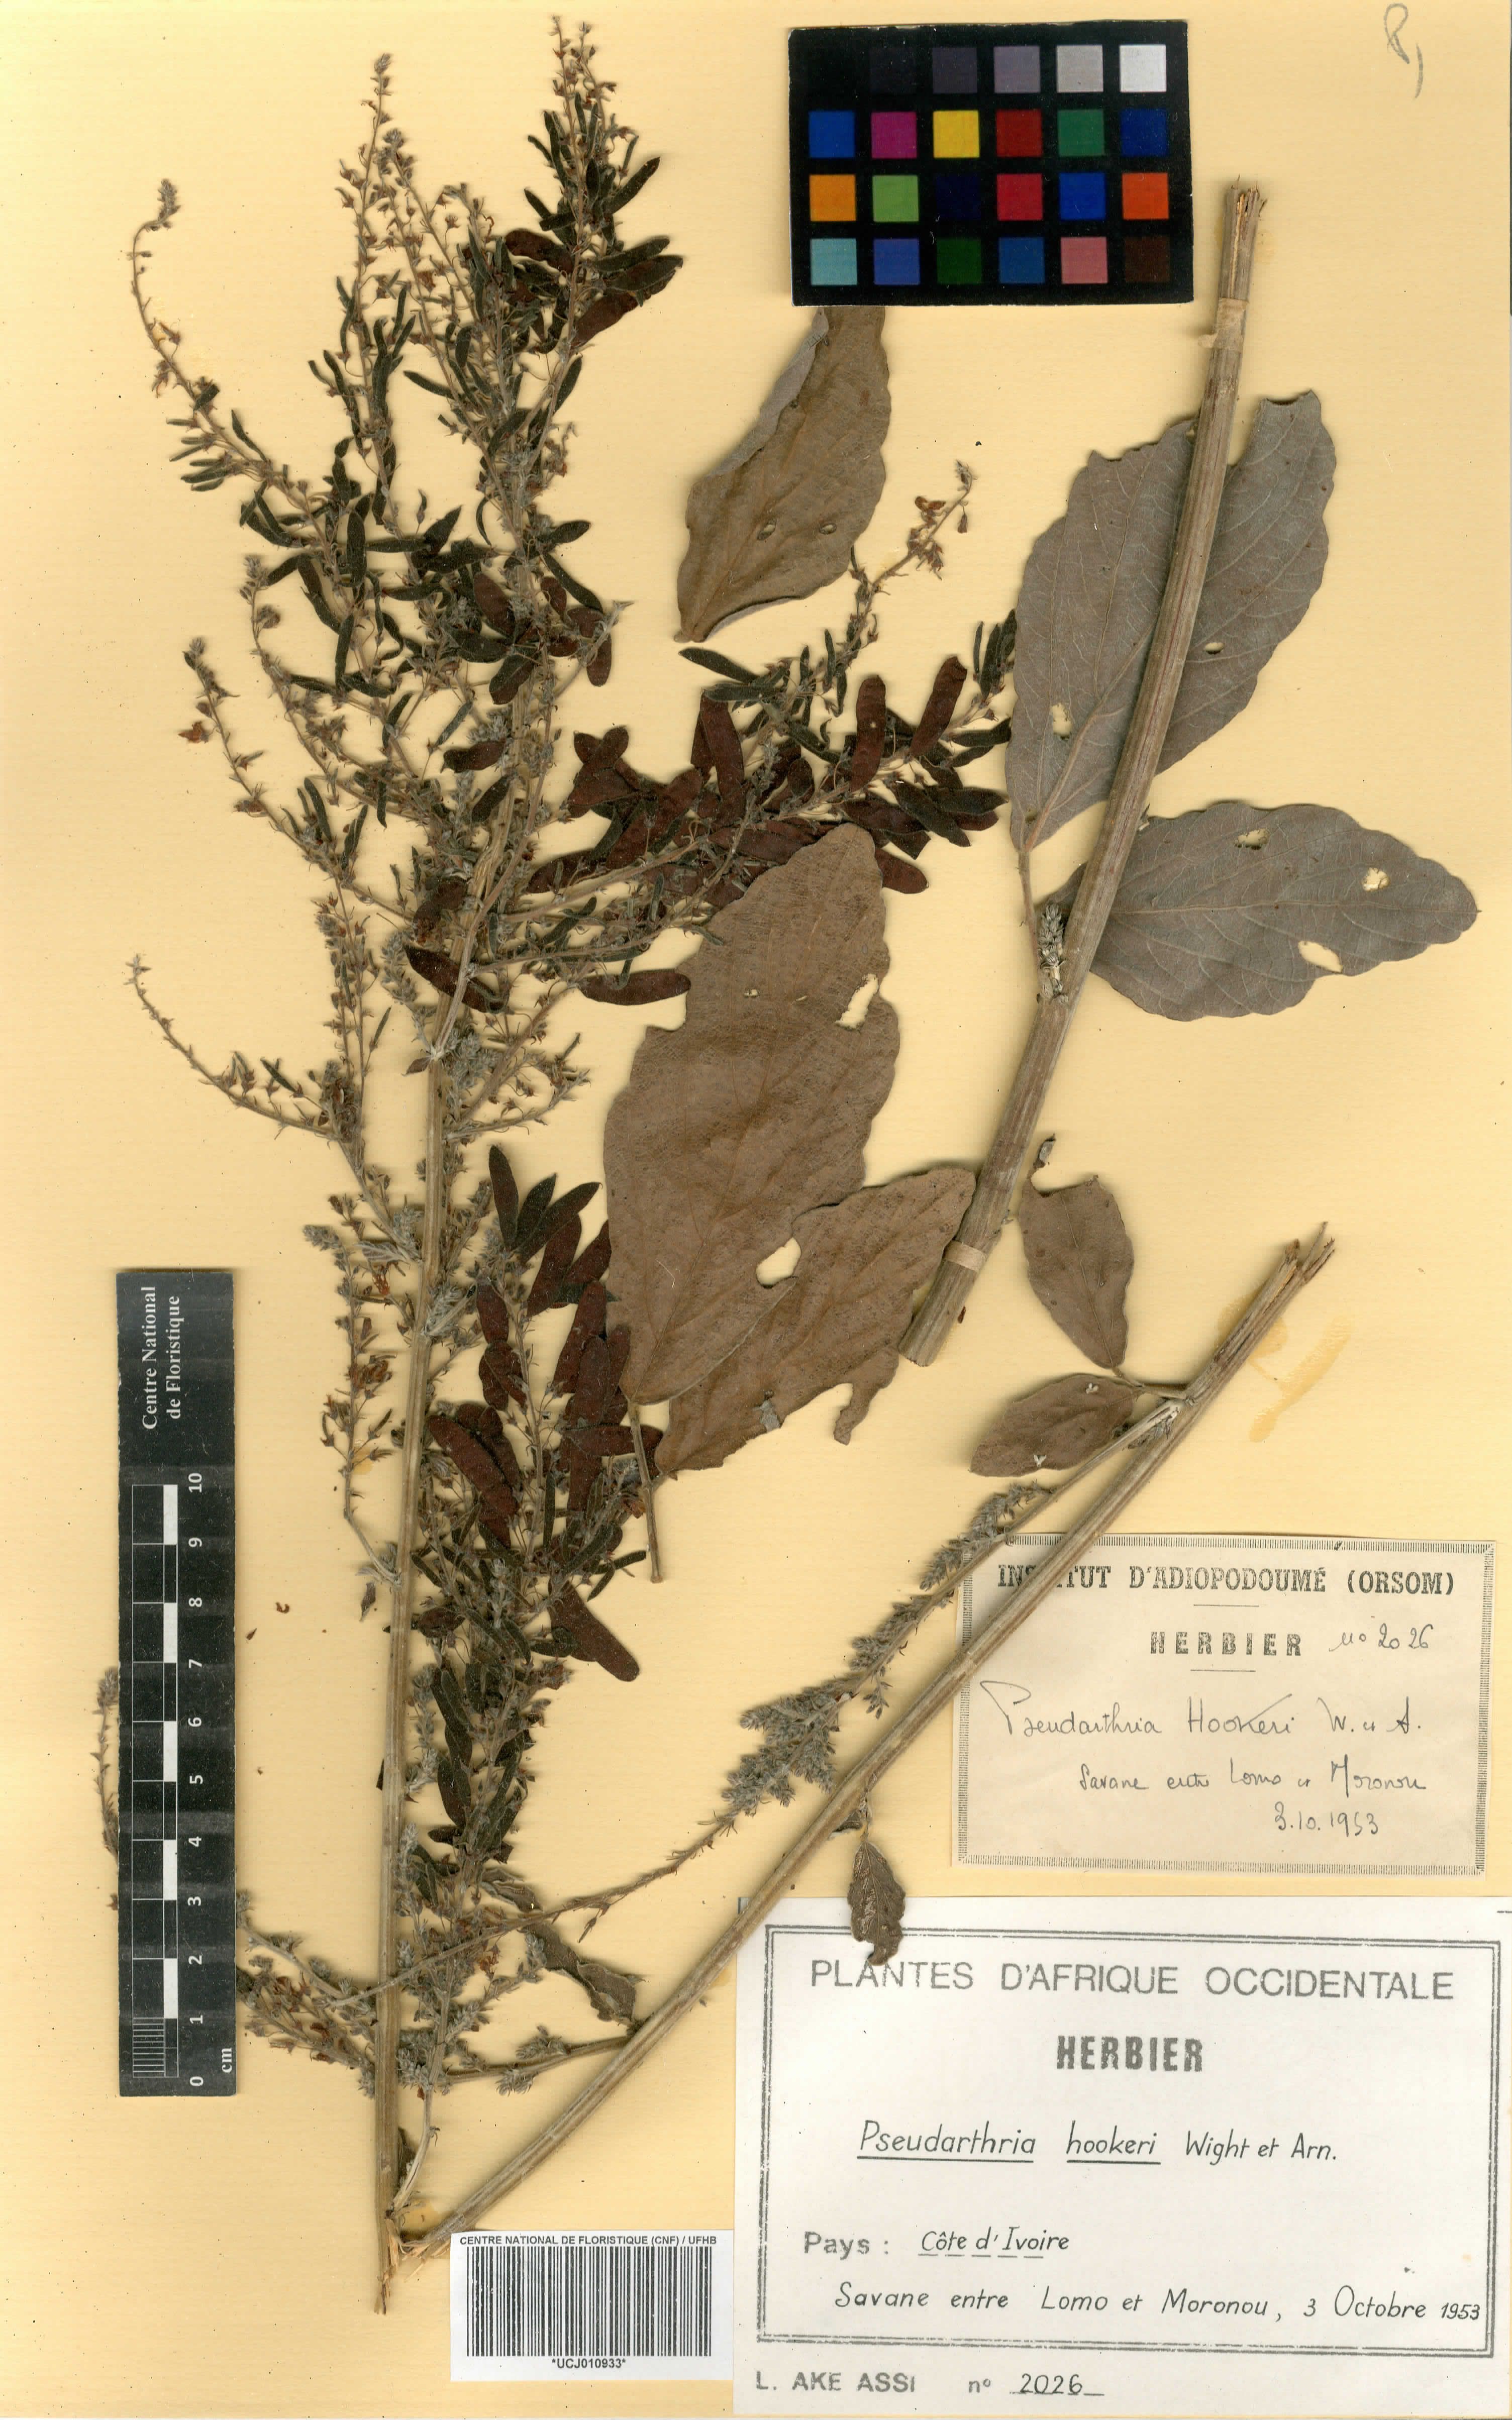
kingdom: Plantae
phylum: Tracheophyta
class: Magnoliopsida
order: Fabales
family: Fabaceae
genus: Pseudarthria
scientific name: Pseudarthria hookeri
